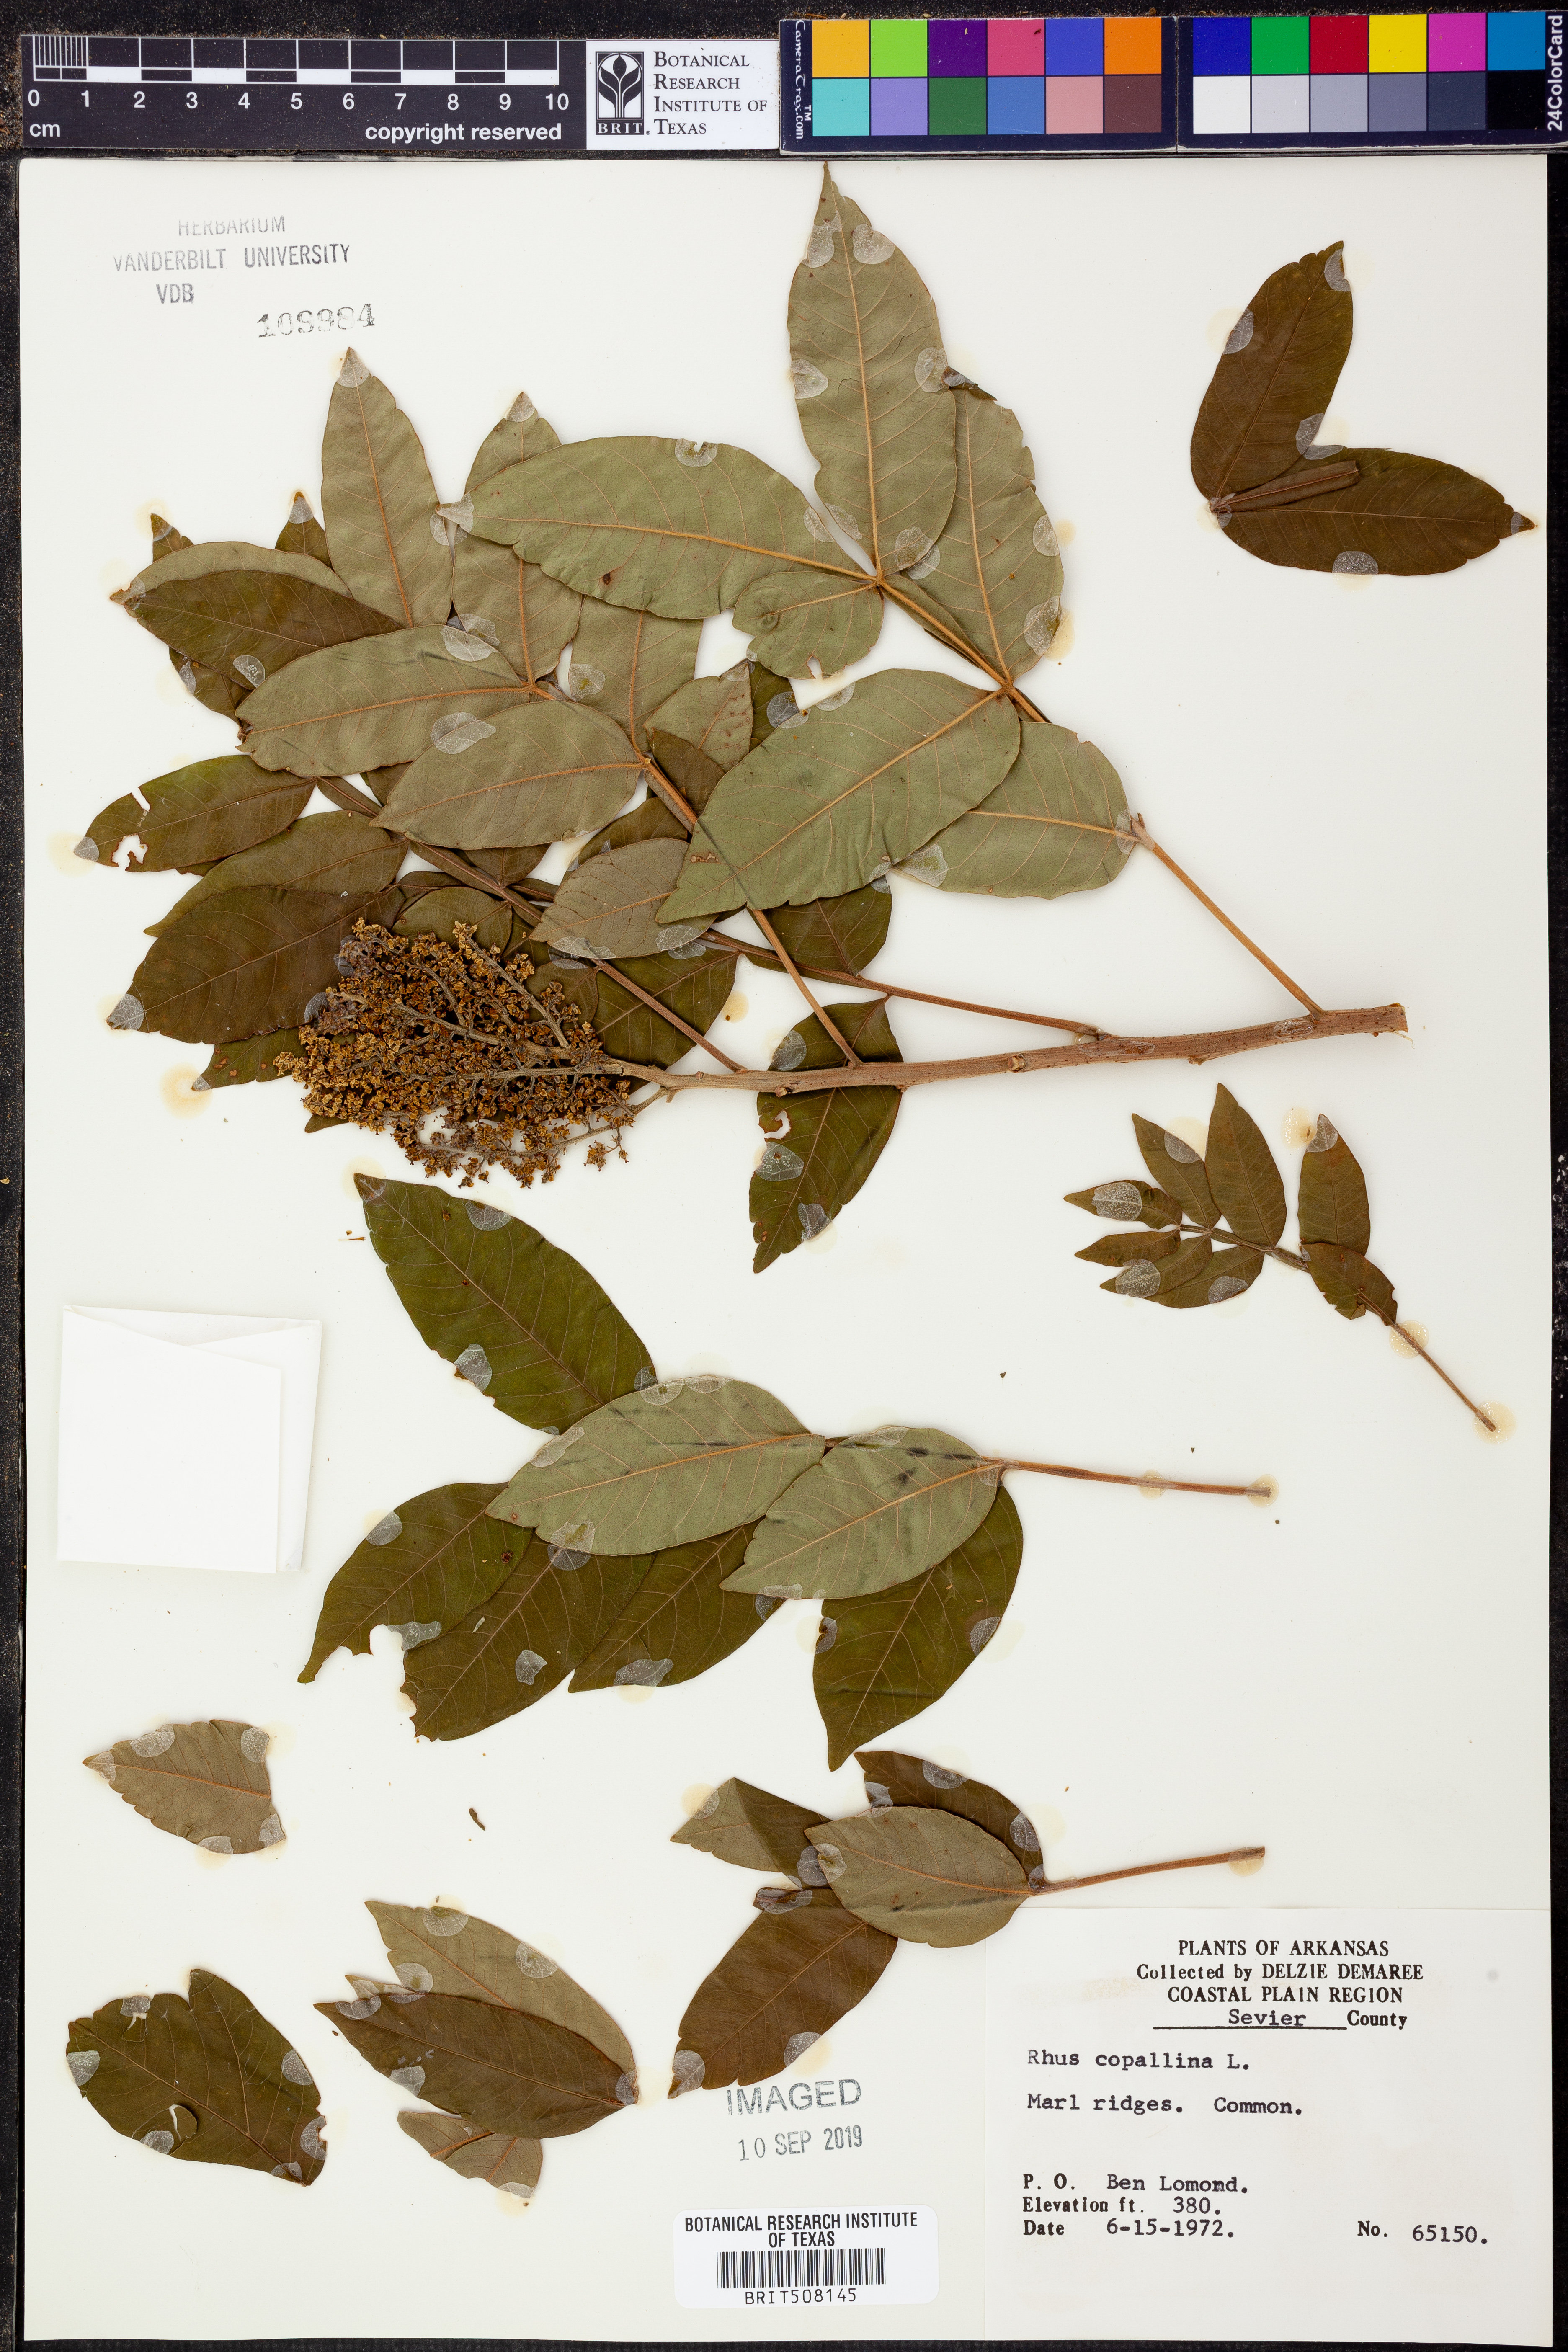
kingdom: Plantae
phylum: Tracheophyta
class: Magnoliopsida
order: Sapindales
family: Anacardiaceae
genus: Rhus
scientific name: Rhus copallina
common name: Shining sumac
